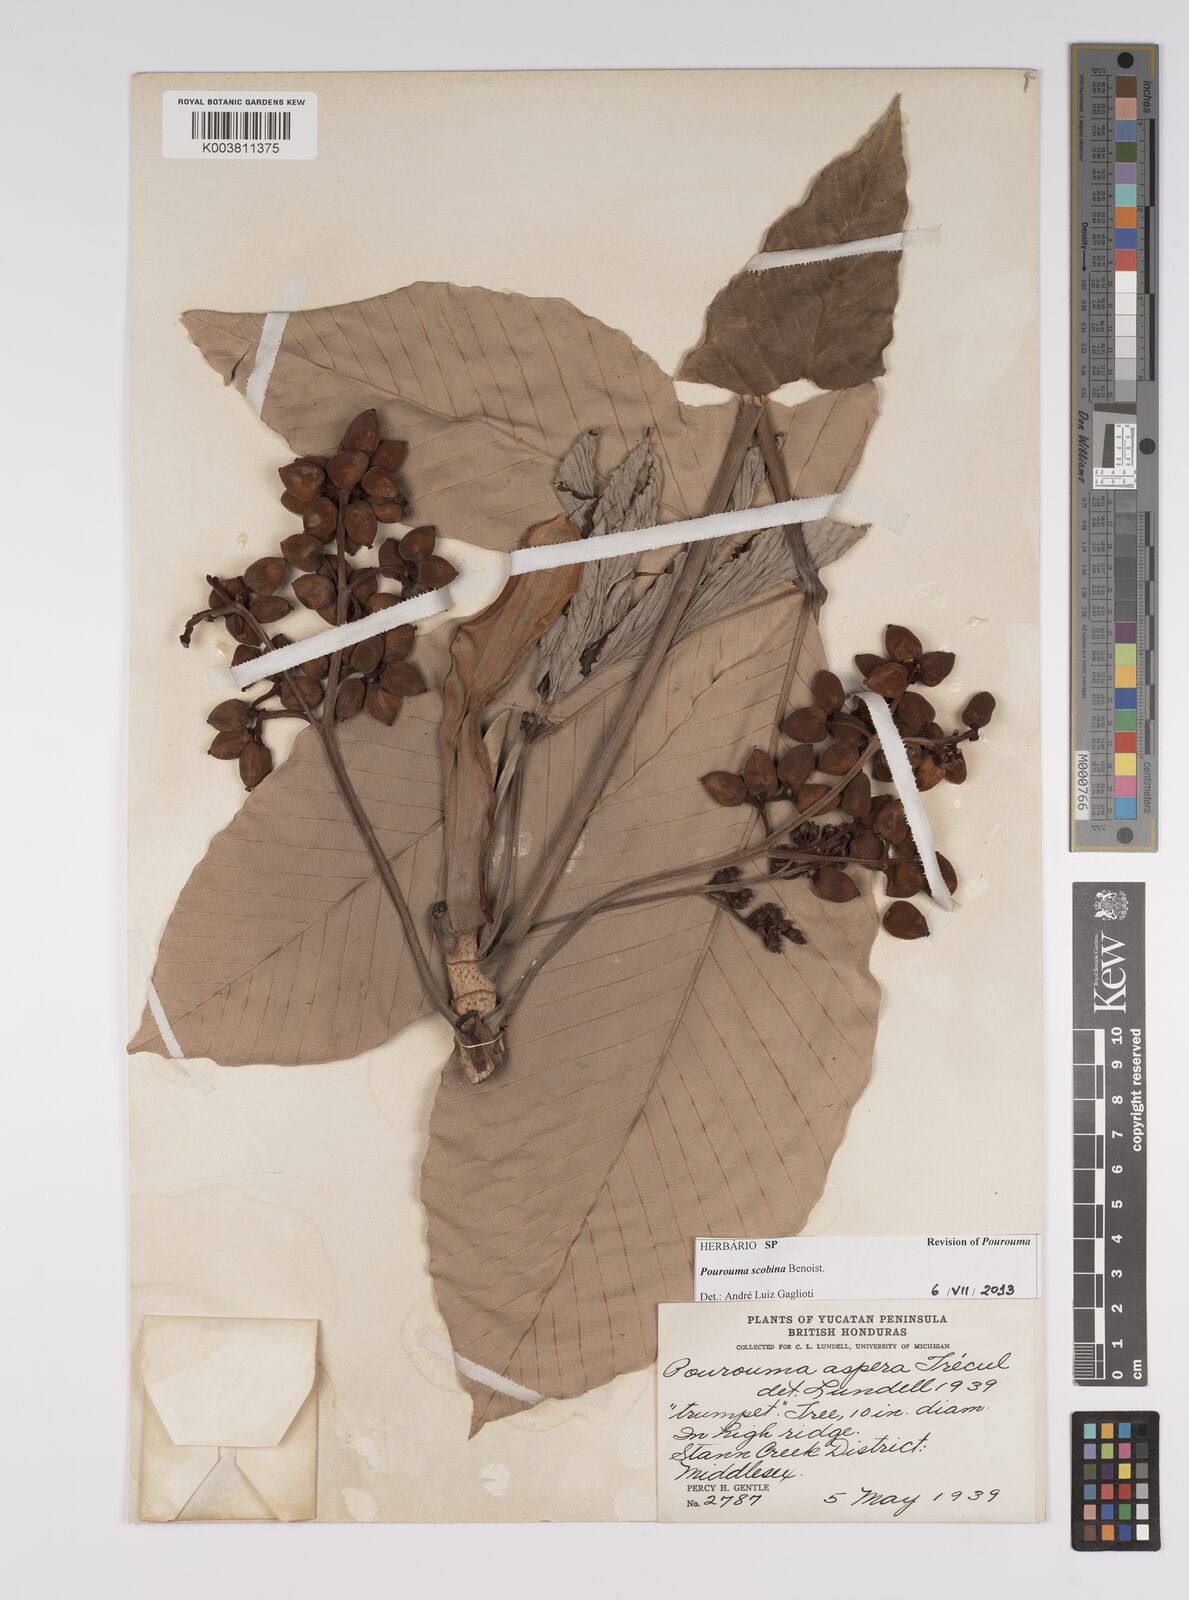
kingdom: Plantae
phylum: Tracheophyta
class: Magnoliopsida
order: Rosales
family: Urticaceae
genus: Pourouma
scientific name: Pourouma bicolor
